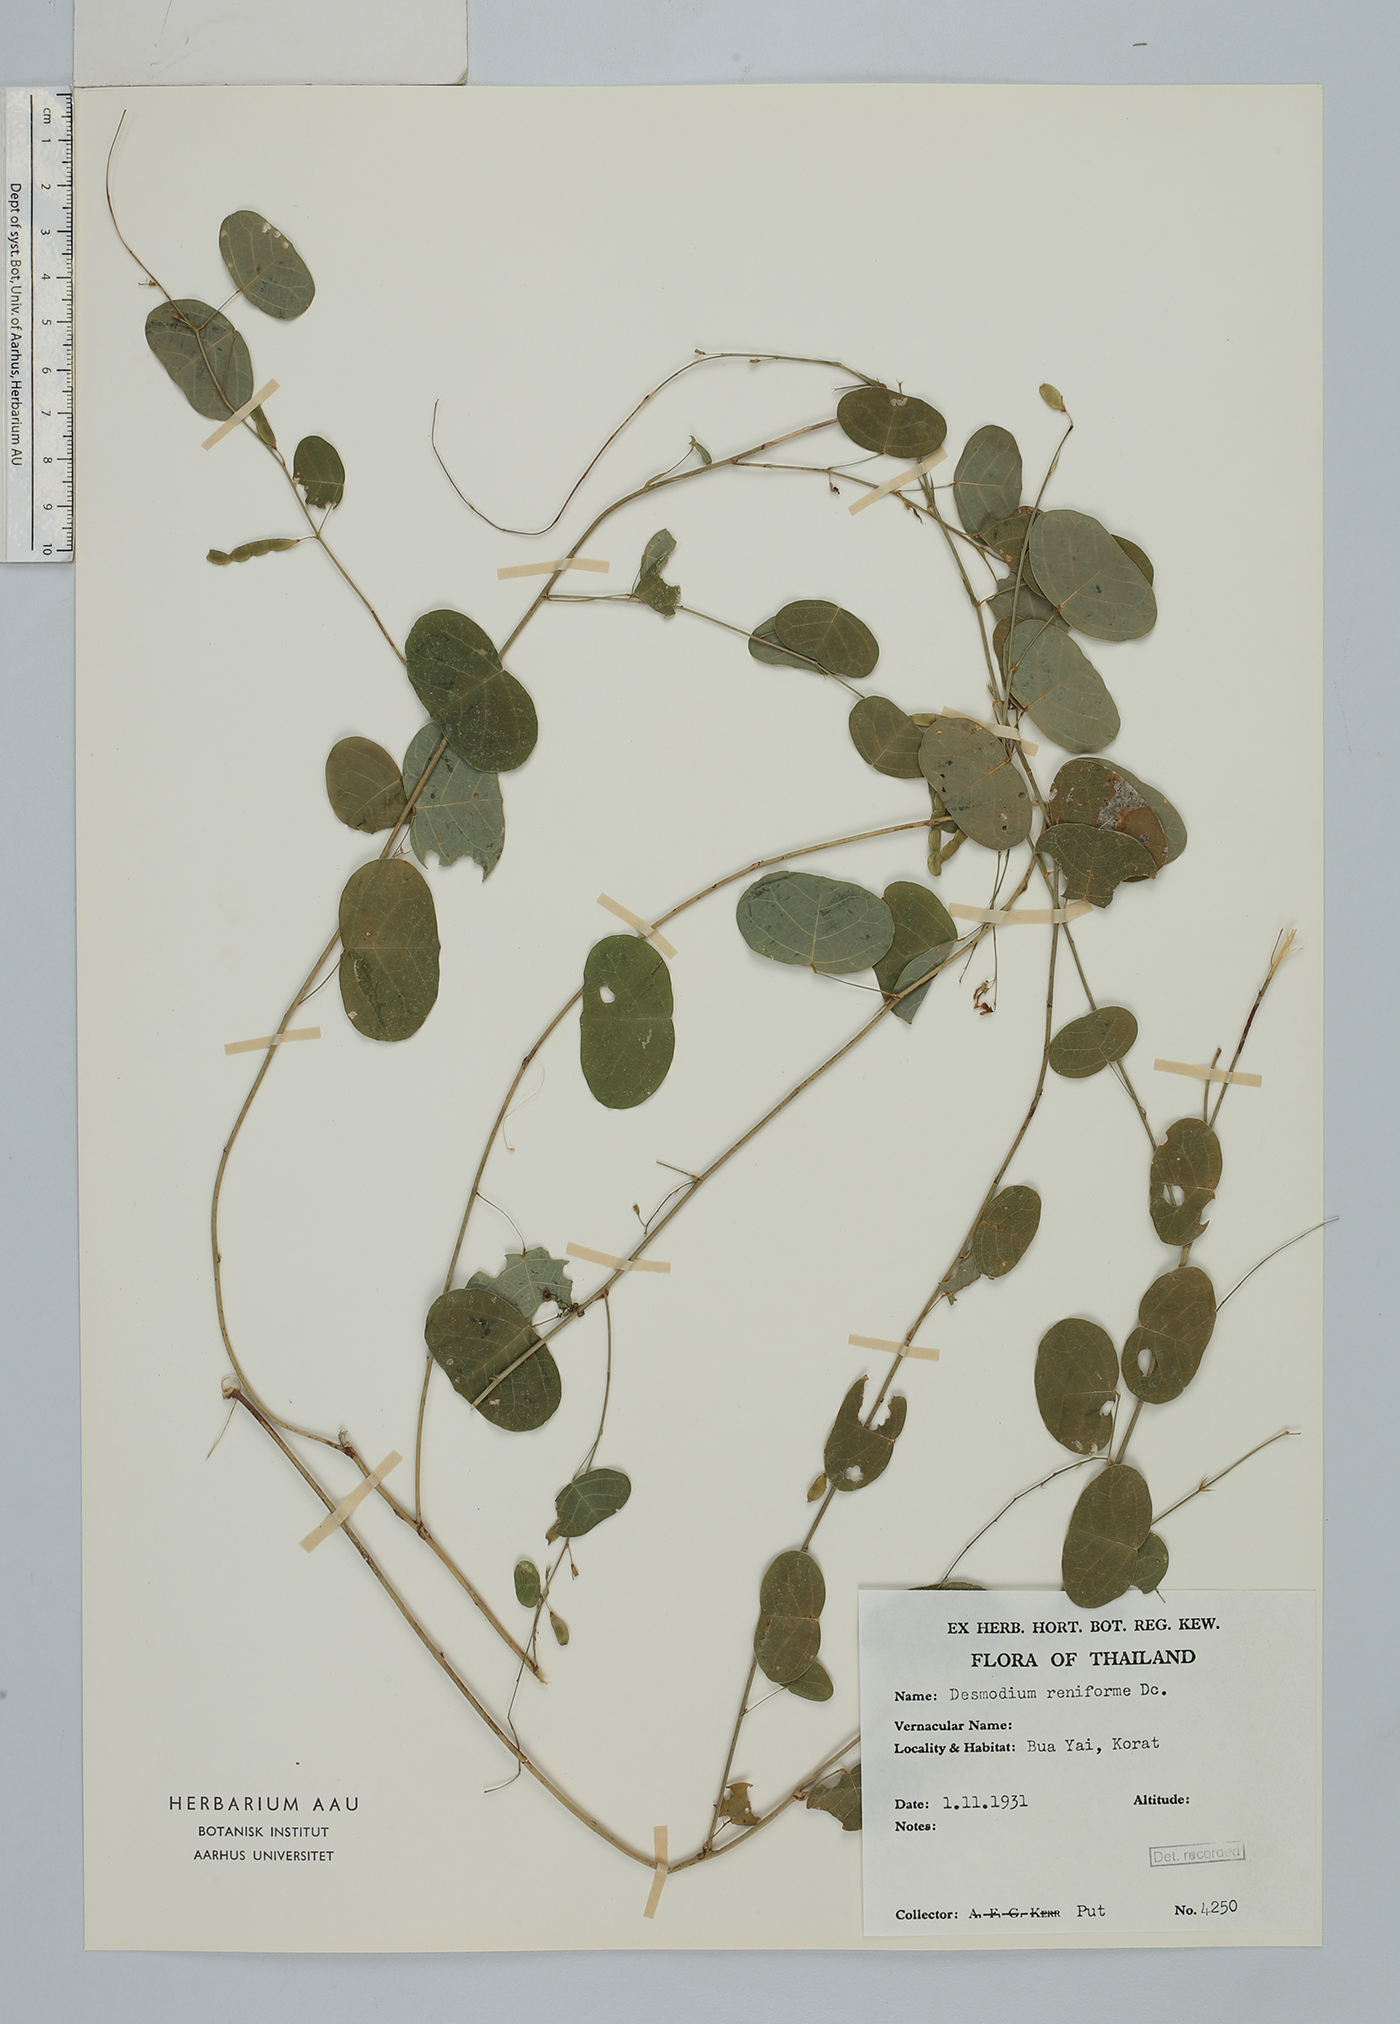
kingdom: Plantae
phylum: Tracheophyta
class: Magnoliopsida
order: Fabales
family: Fabaceae
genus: Huangtcia
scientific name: Huangtcia renifolia
